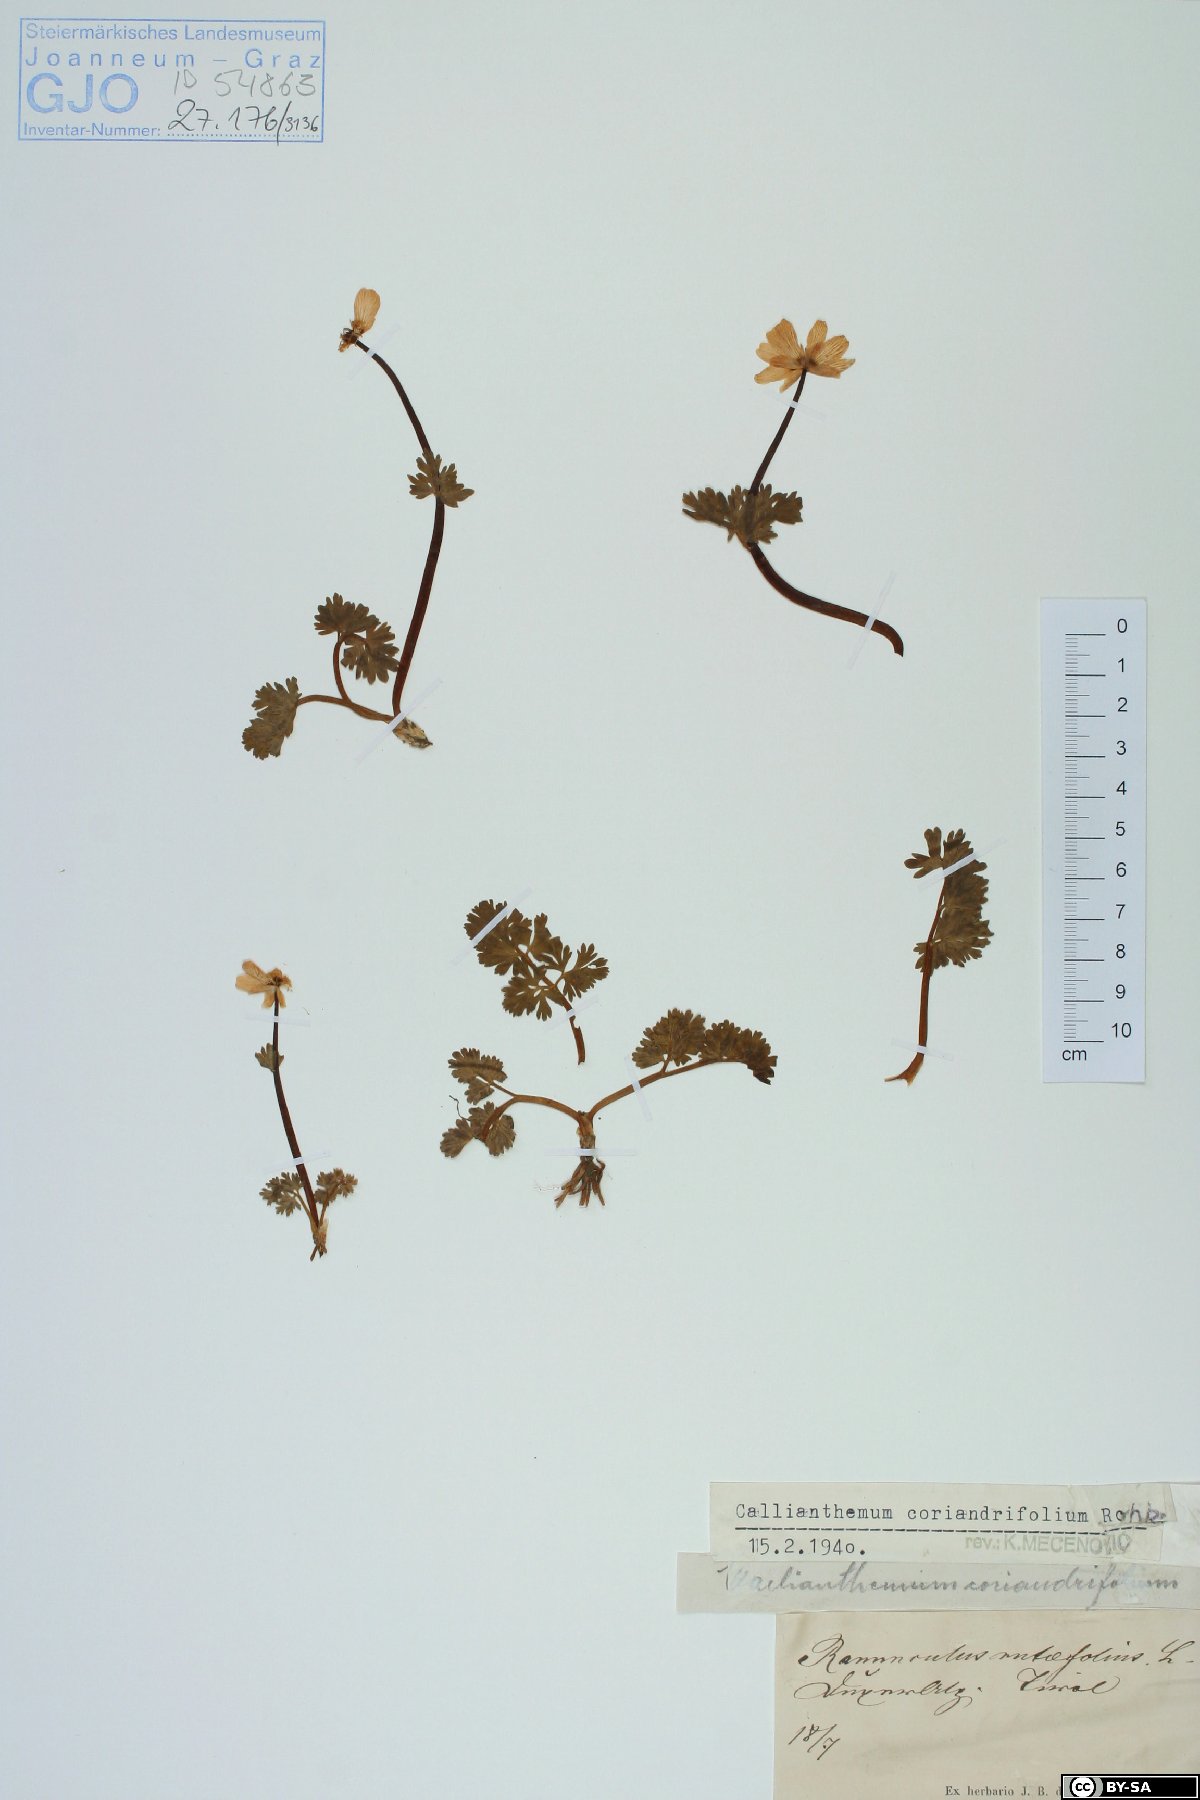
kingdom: Plantae
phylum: Tracheophyta
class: Magnoliopsida
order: Ranunculales
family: Ranunculaceae
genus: Callianthemum
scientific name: Callianthemum coriandrifolium
